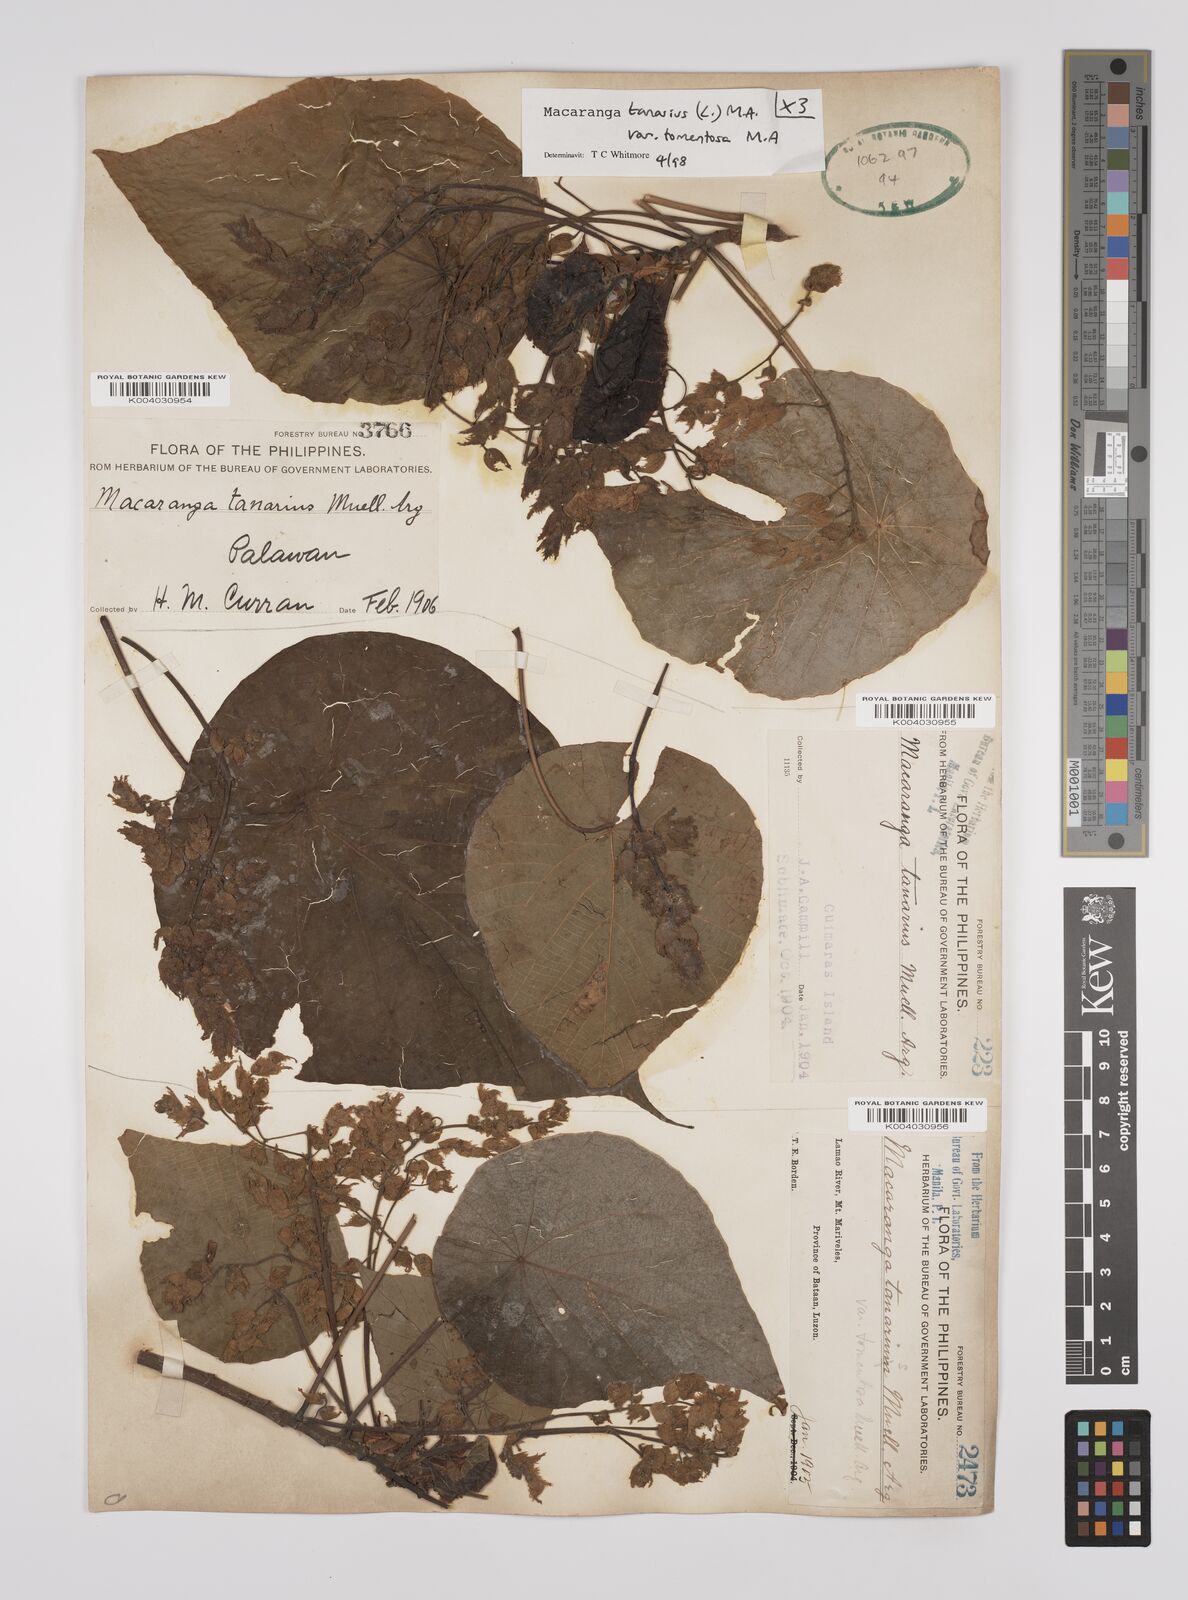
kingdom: Plantae
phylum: Tracheophyta
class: Magnoliopsida
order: Malpighiales
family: Euphorbiaceae
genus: Macaranga
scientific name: Macaranga tanarius
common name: Parasol leaf tree
